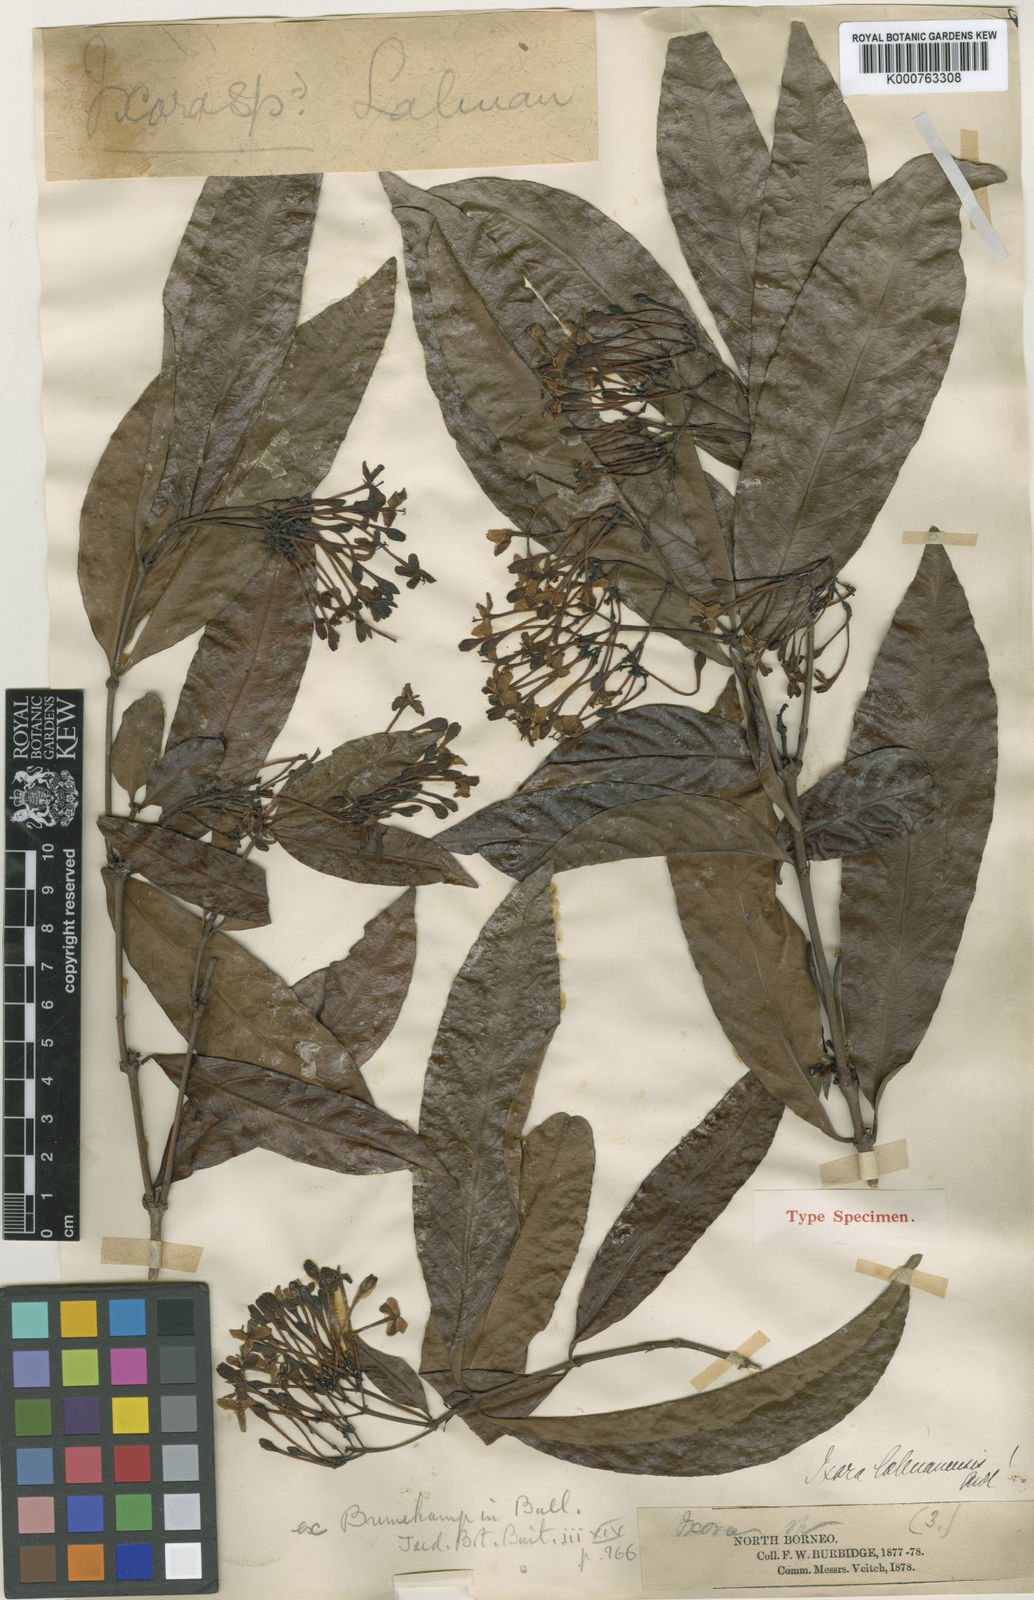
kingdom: Plantae
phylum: Tracheophyta
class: Magnoliopsida
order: Gentianales
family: Rubiaceae
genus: Ixora
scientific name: Ixora labuanensis
